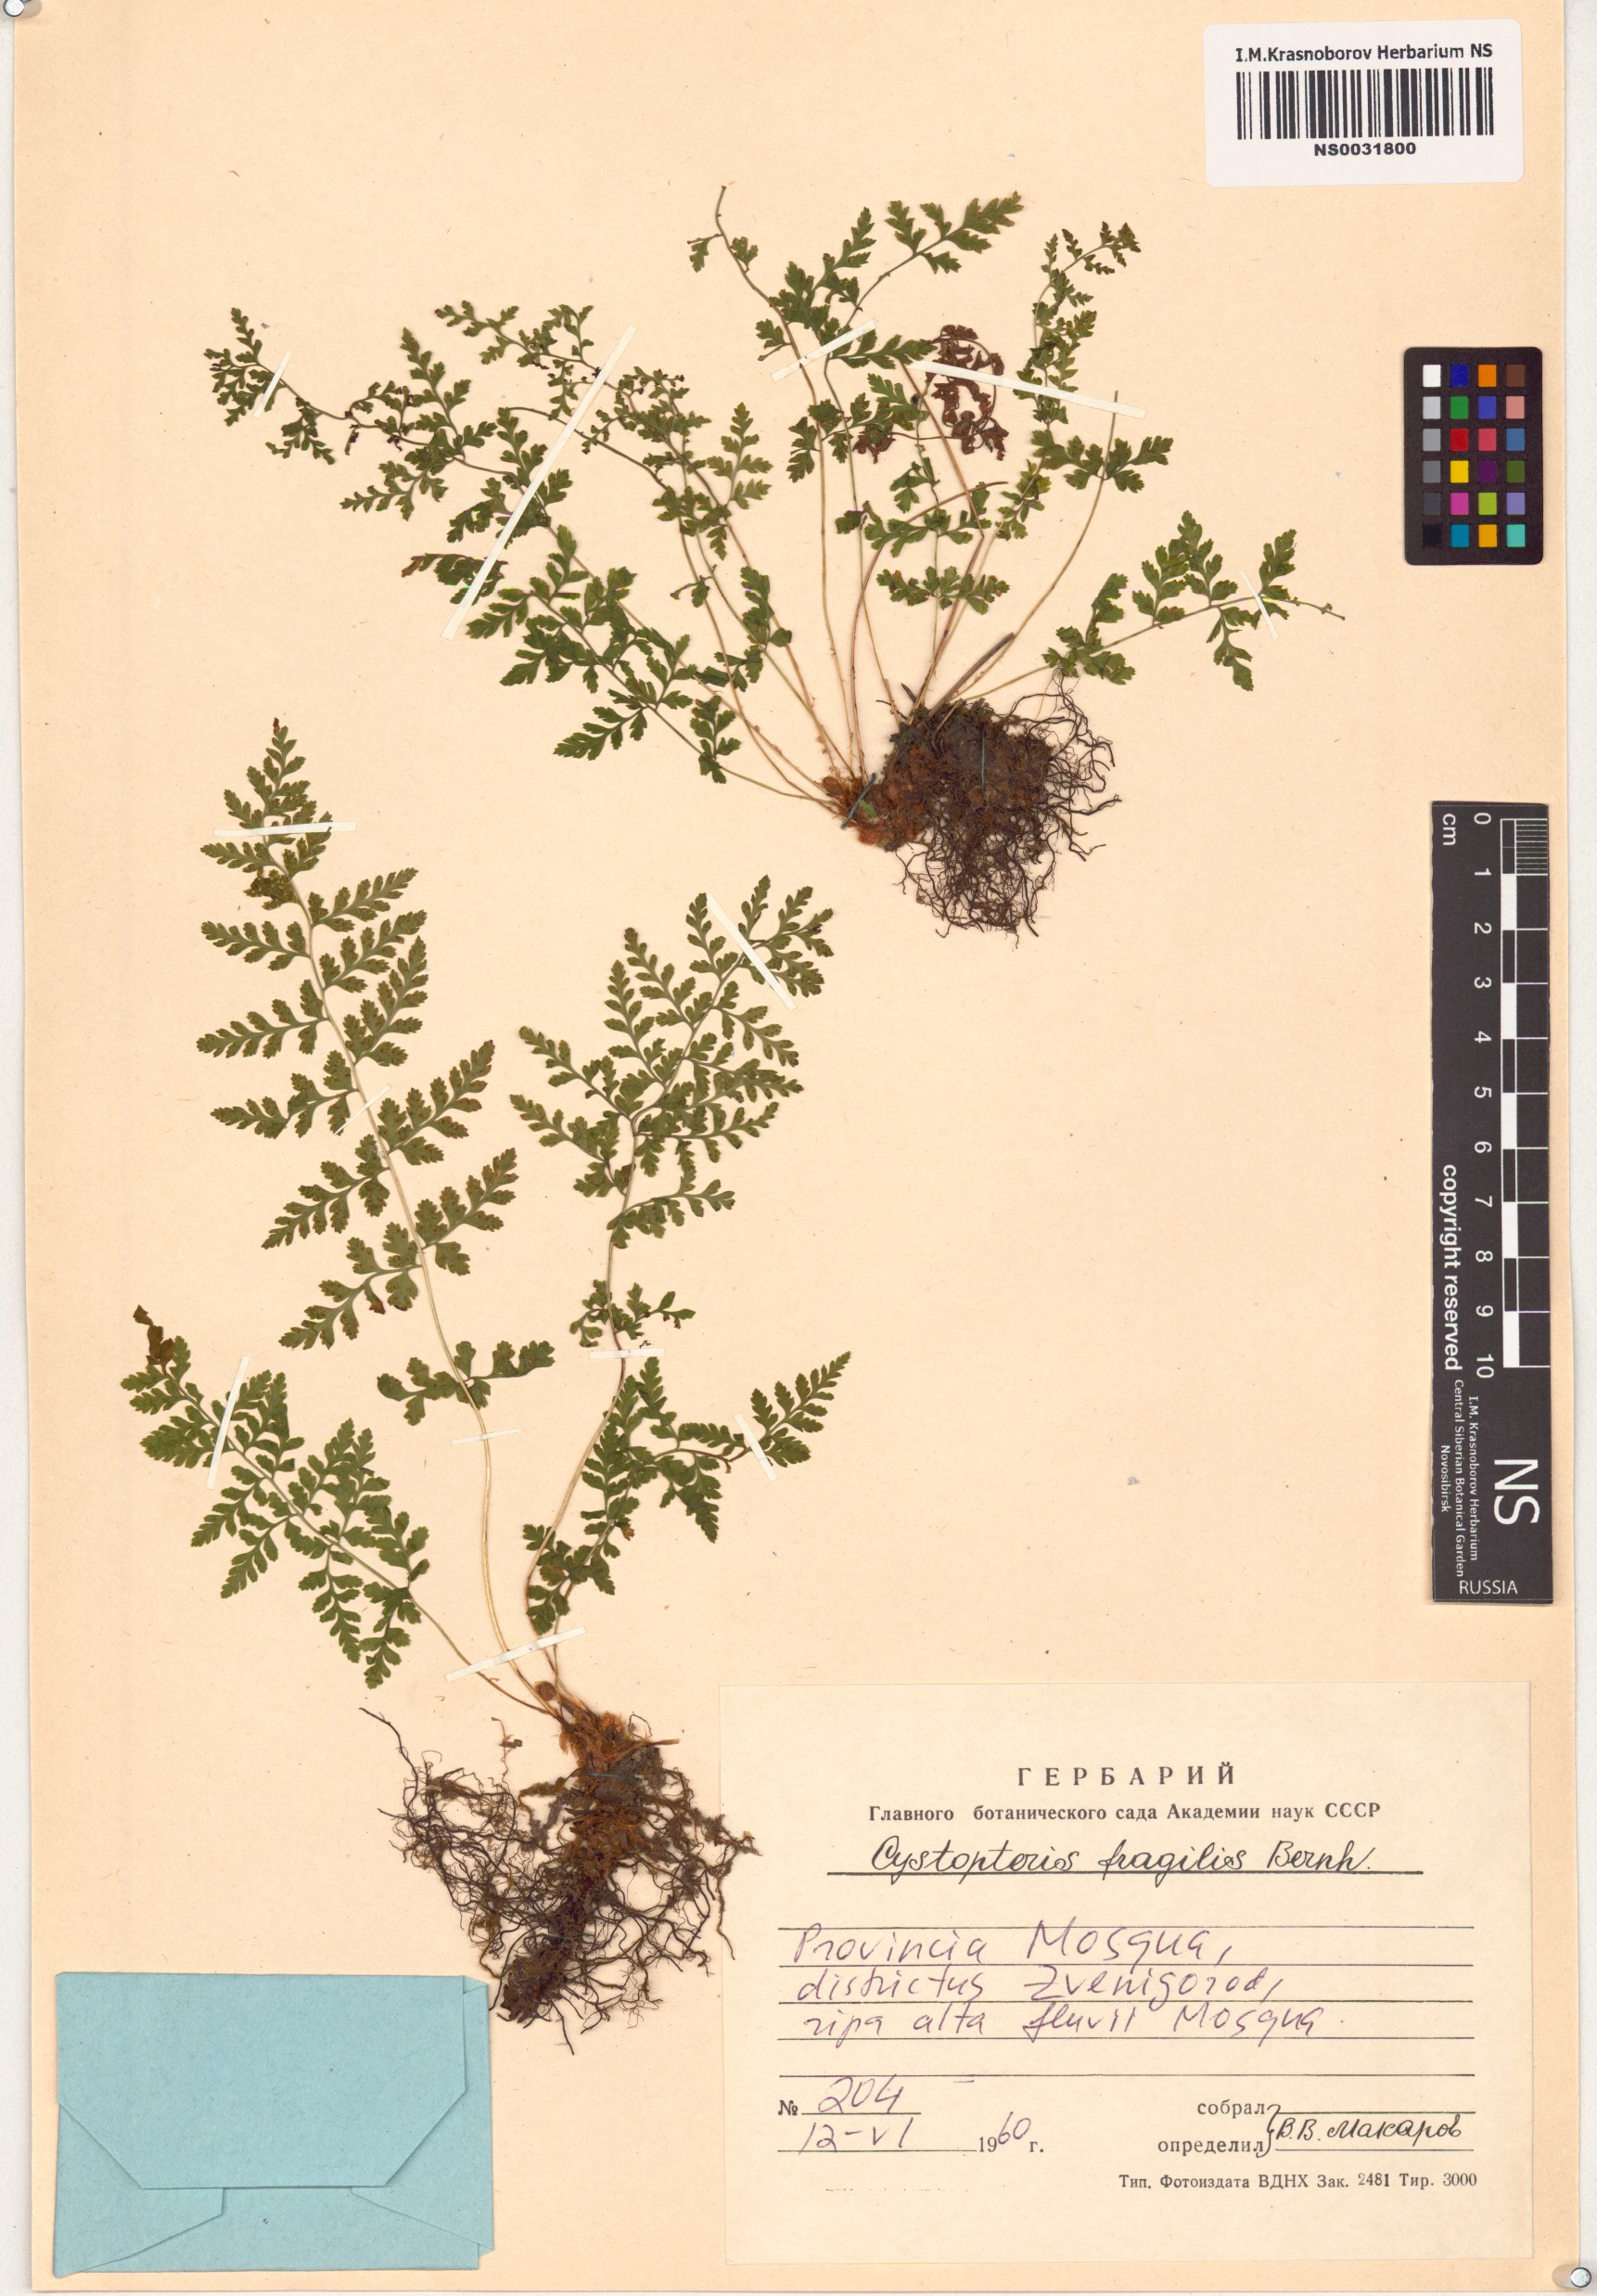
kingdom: Plantae
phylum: Tracheophyta
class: Polypodiopsida
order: Polypodiales
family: Cystopteridaceae
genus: Cystopteris
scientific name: Cystopteris fragilis
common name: Brittle bladder fern
